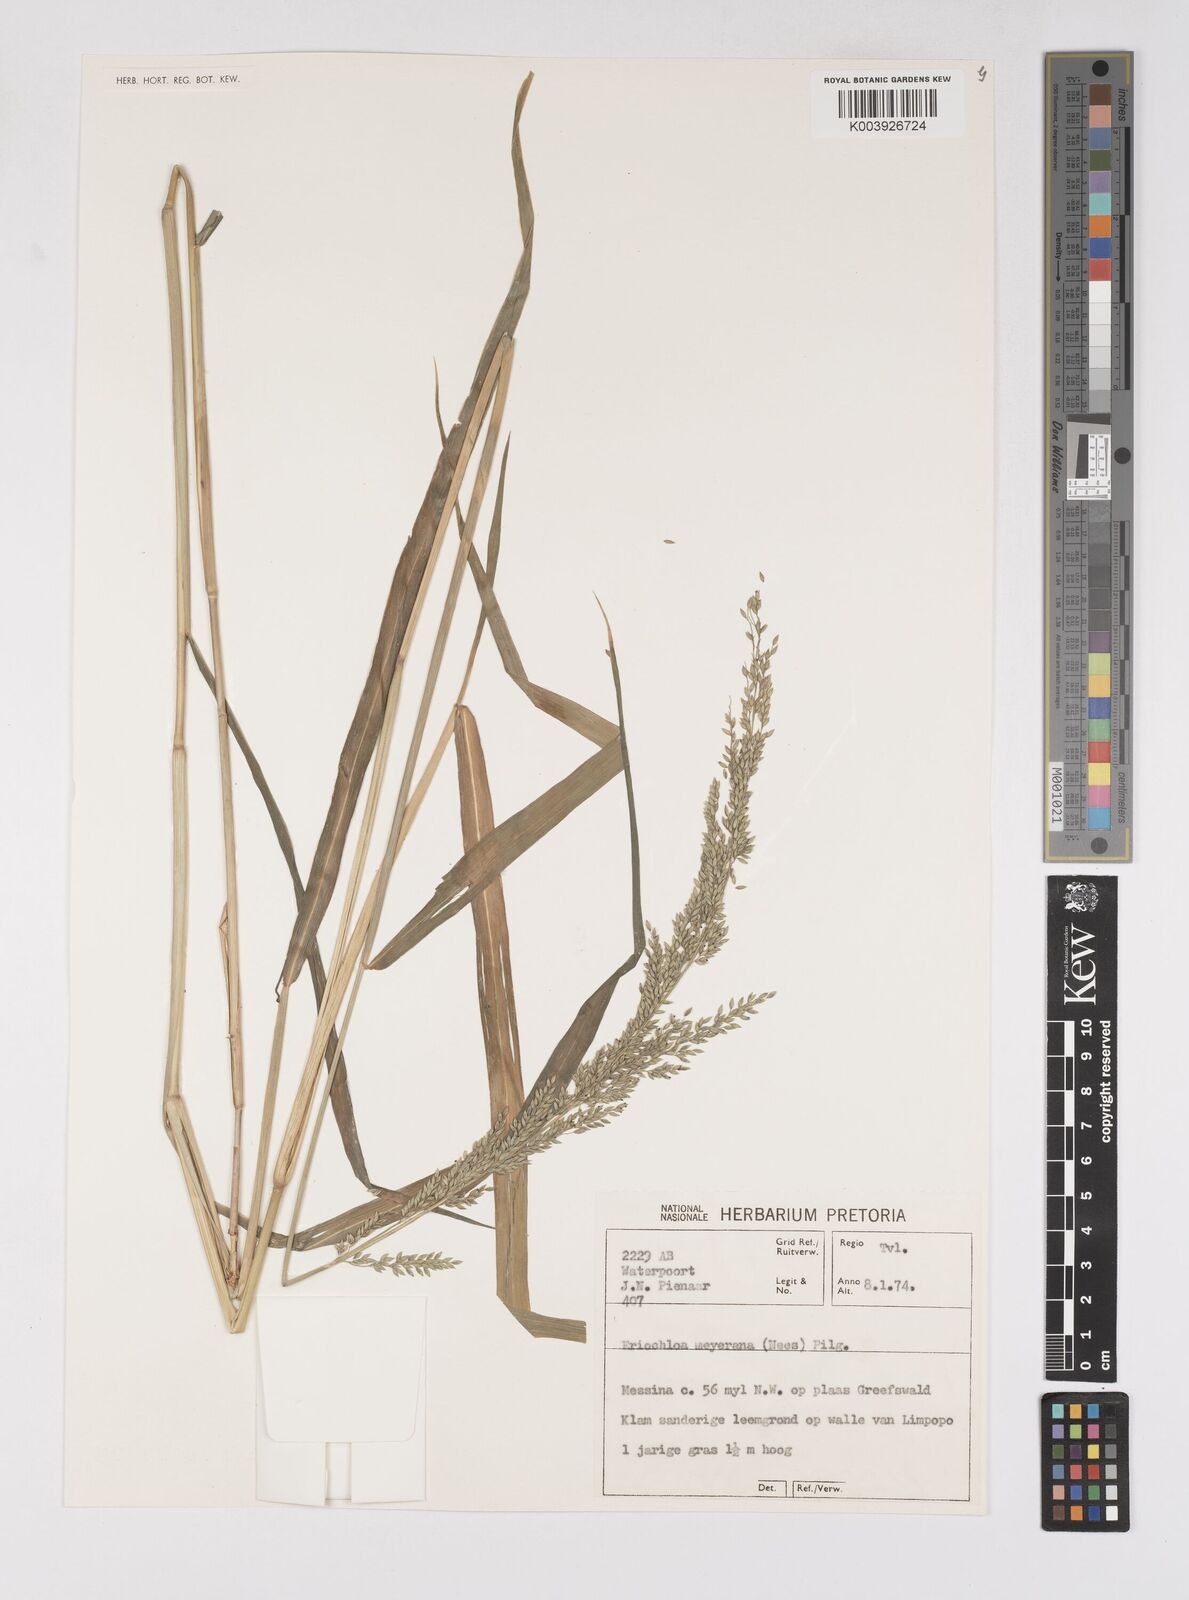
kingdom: Plantae
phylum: Tracheophyta
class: Liliopsida
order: Poales
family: Poaceae
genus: Eriochloa
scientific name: Eriochloa meyeriana
